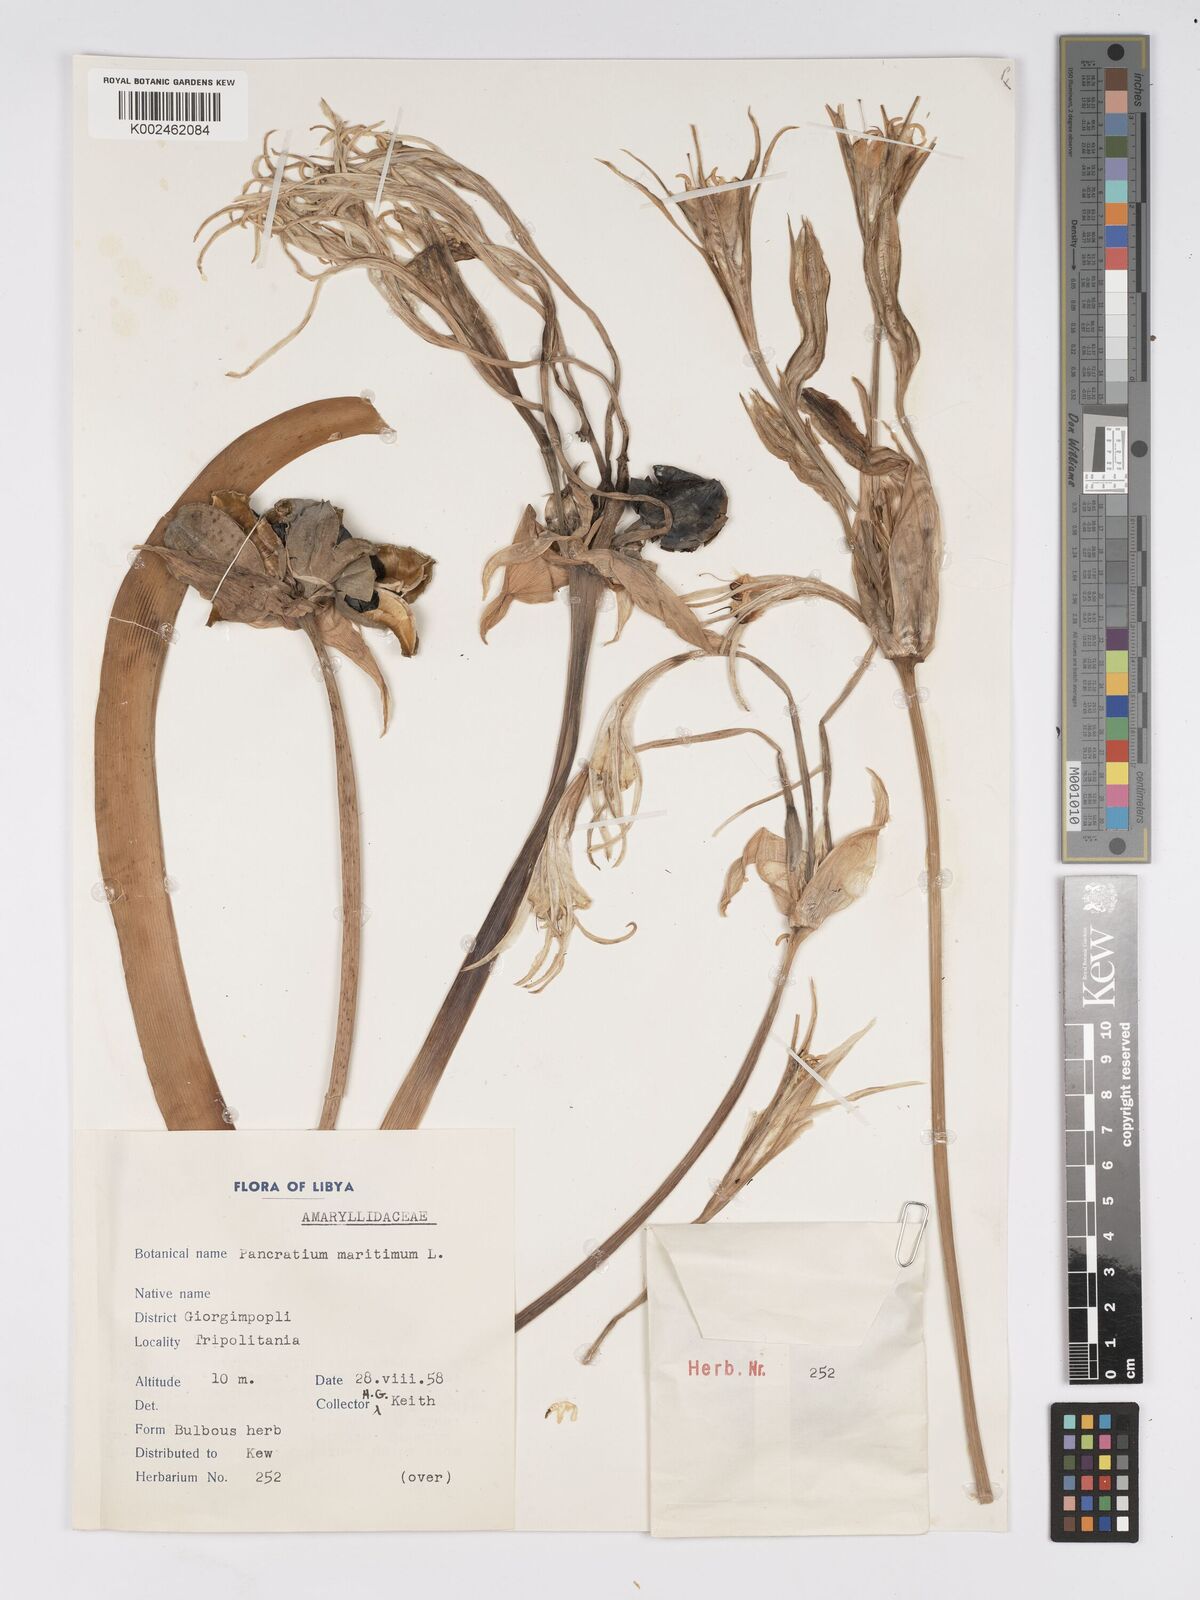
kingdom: Plantae
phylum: Tracheophyta
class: Liliopsida
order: Asparagales
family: Amaryllidaceae
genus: Pancratium
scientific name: Pancratium maritimum
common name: Sea-daffodil
